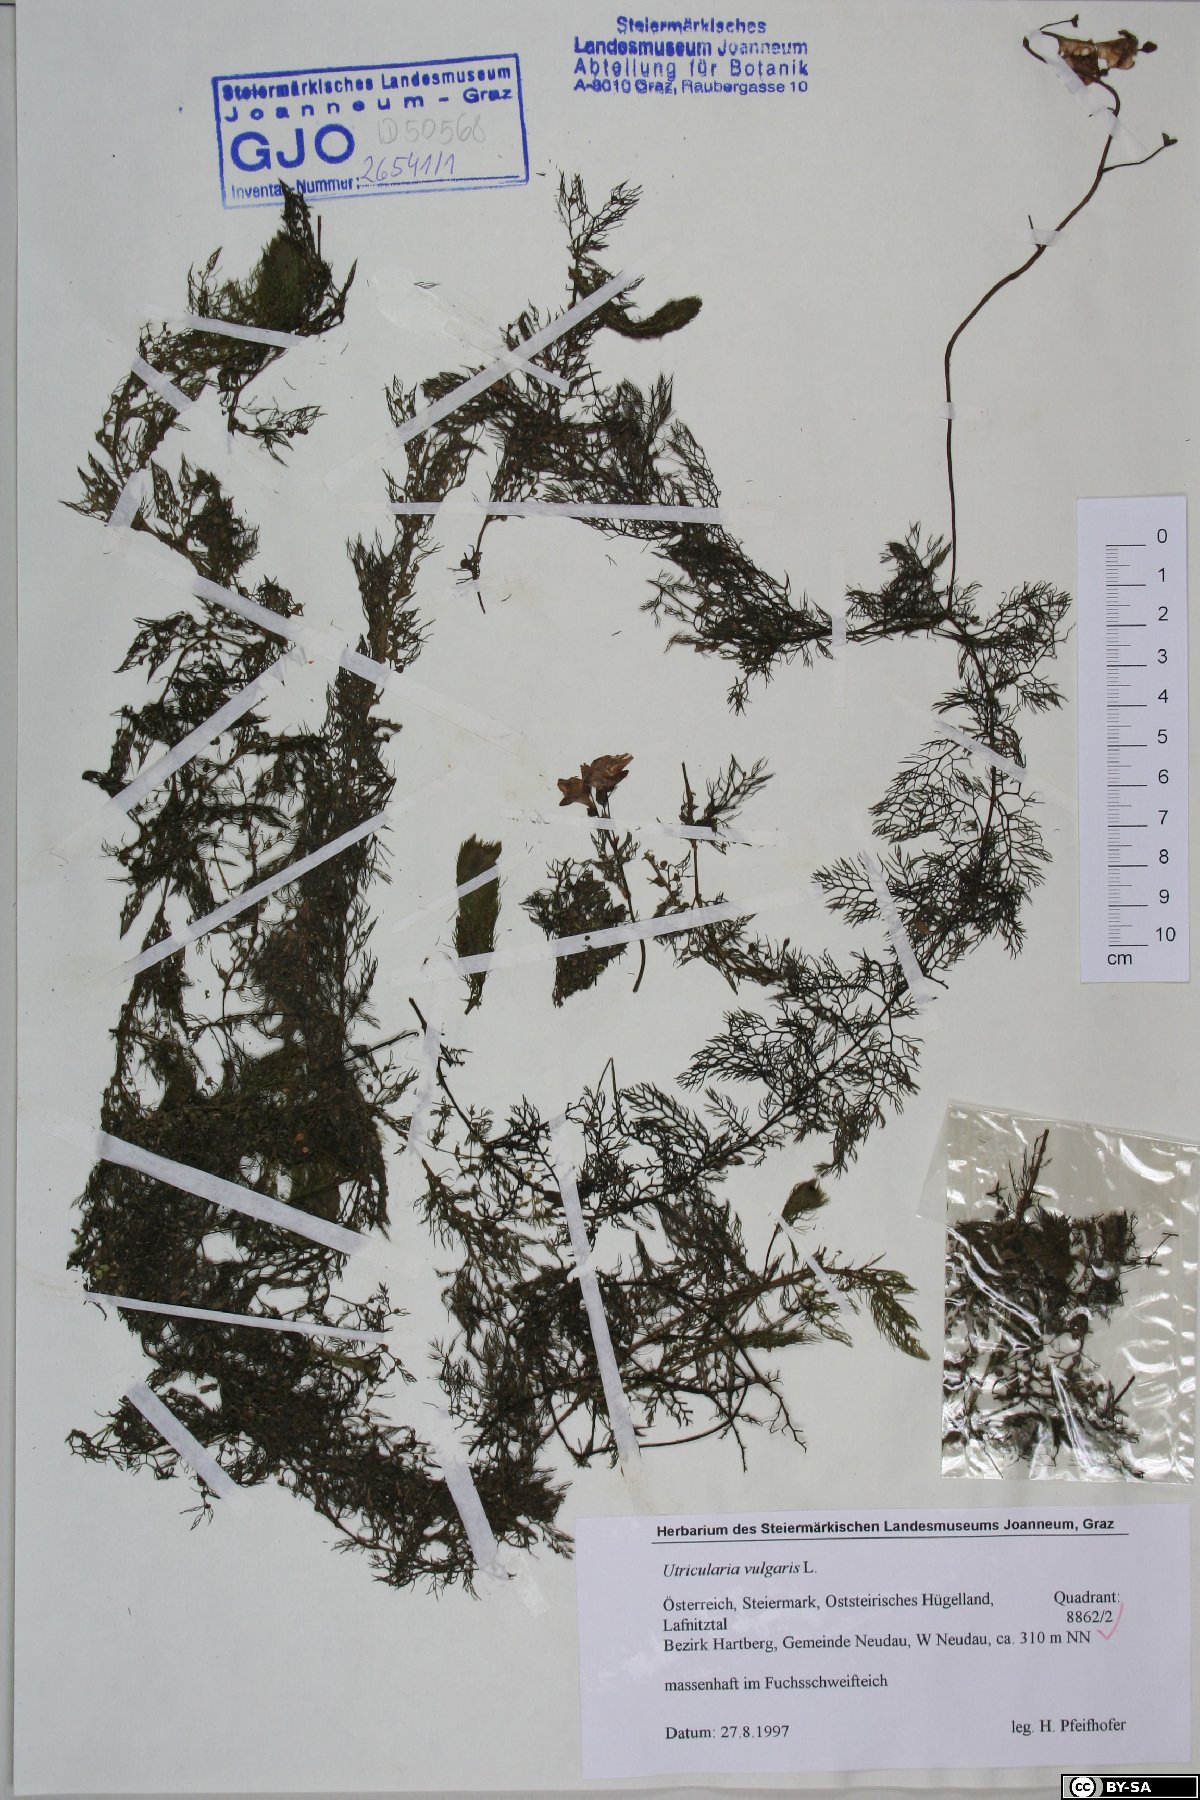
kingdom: Plantae
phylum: Tracheophyta
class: Magnoliopsida
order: Lamiales
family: Lentibulariaceae
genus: Utricularia
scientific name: Utricularia vulgaris
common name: Greater bladderwort
